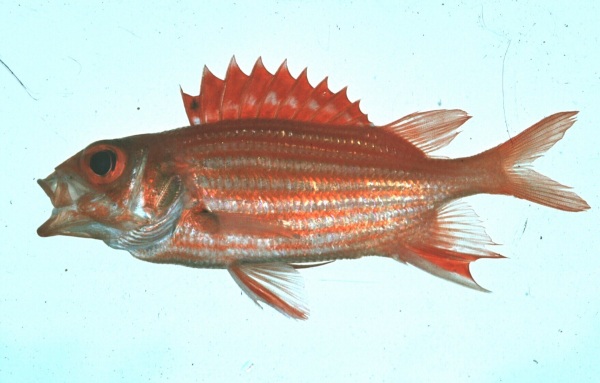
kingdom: Animalia
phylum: Chordata
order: Beryciformes
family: Holocentridae
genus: Sargocentron
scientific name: Sargocentron ittodai
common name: Samurai squirrelfish
